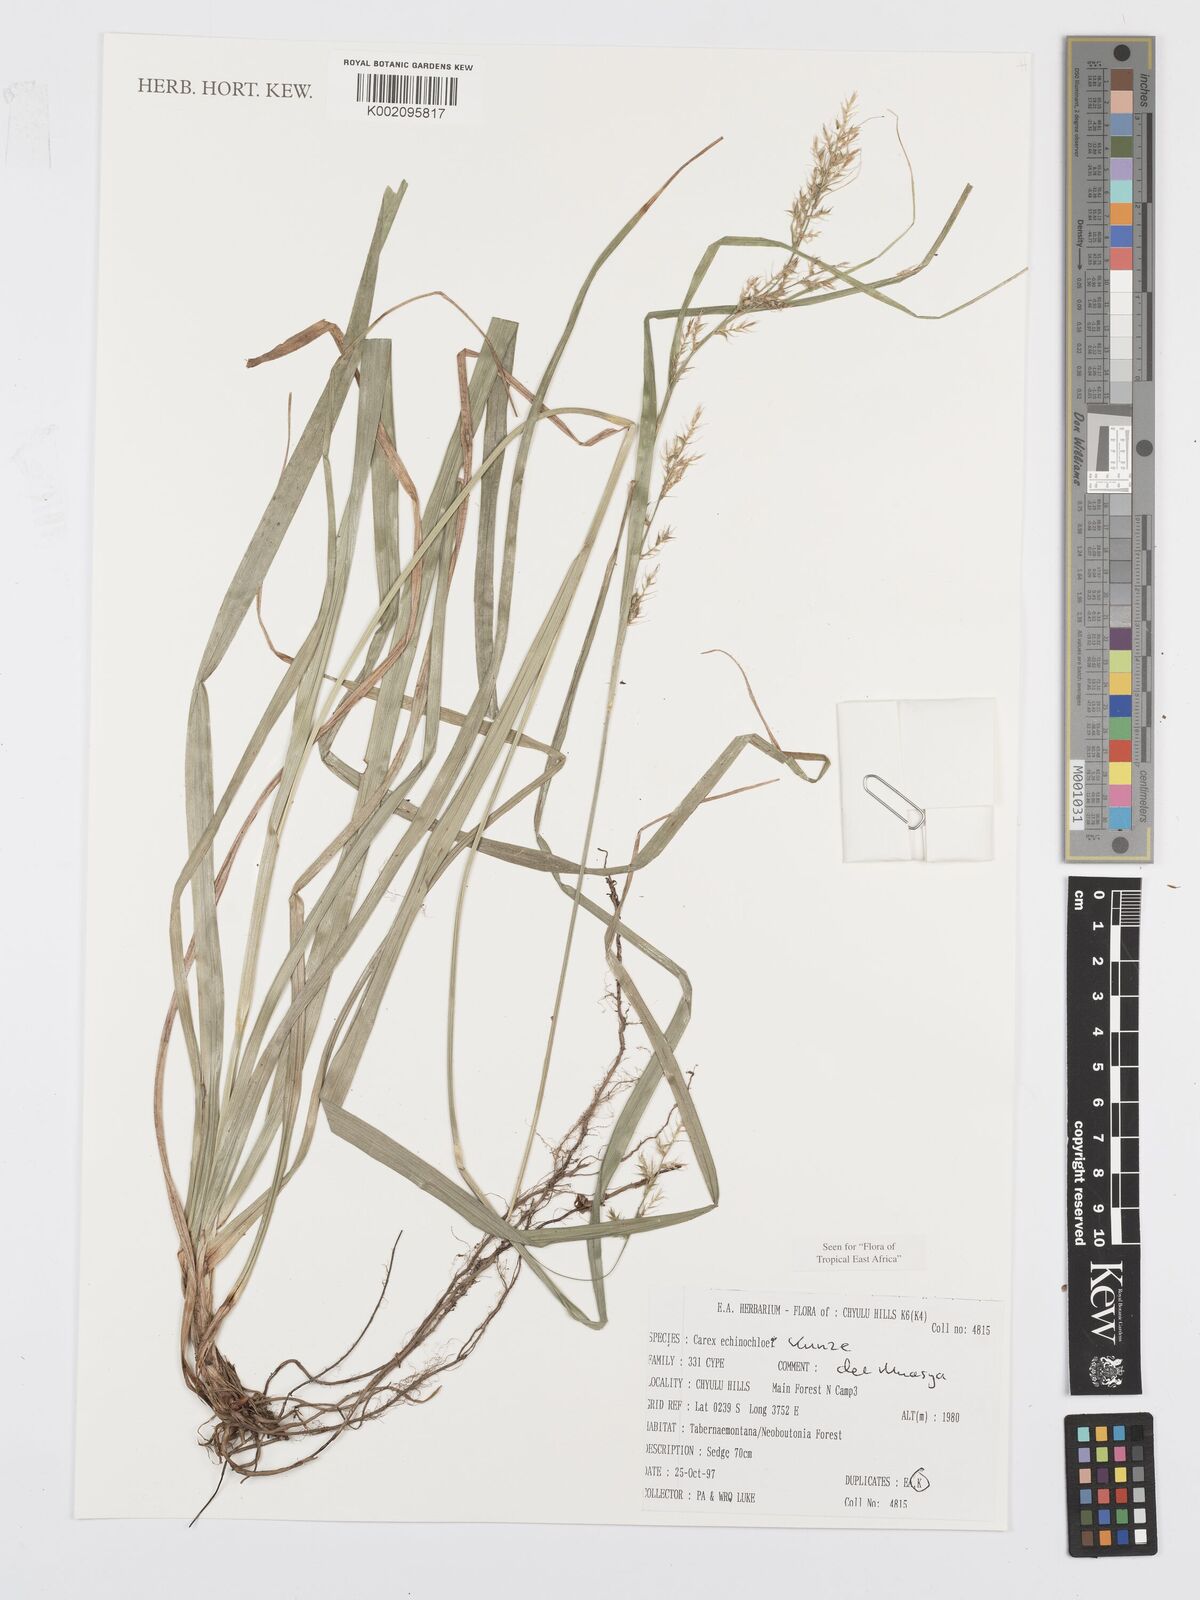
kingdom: Plantae
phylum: Tracheophyta
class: Liliopsida
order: Poales
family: Cyperaceae
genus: Carex
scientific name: Carex echinochloe
